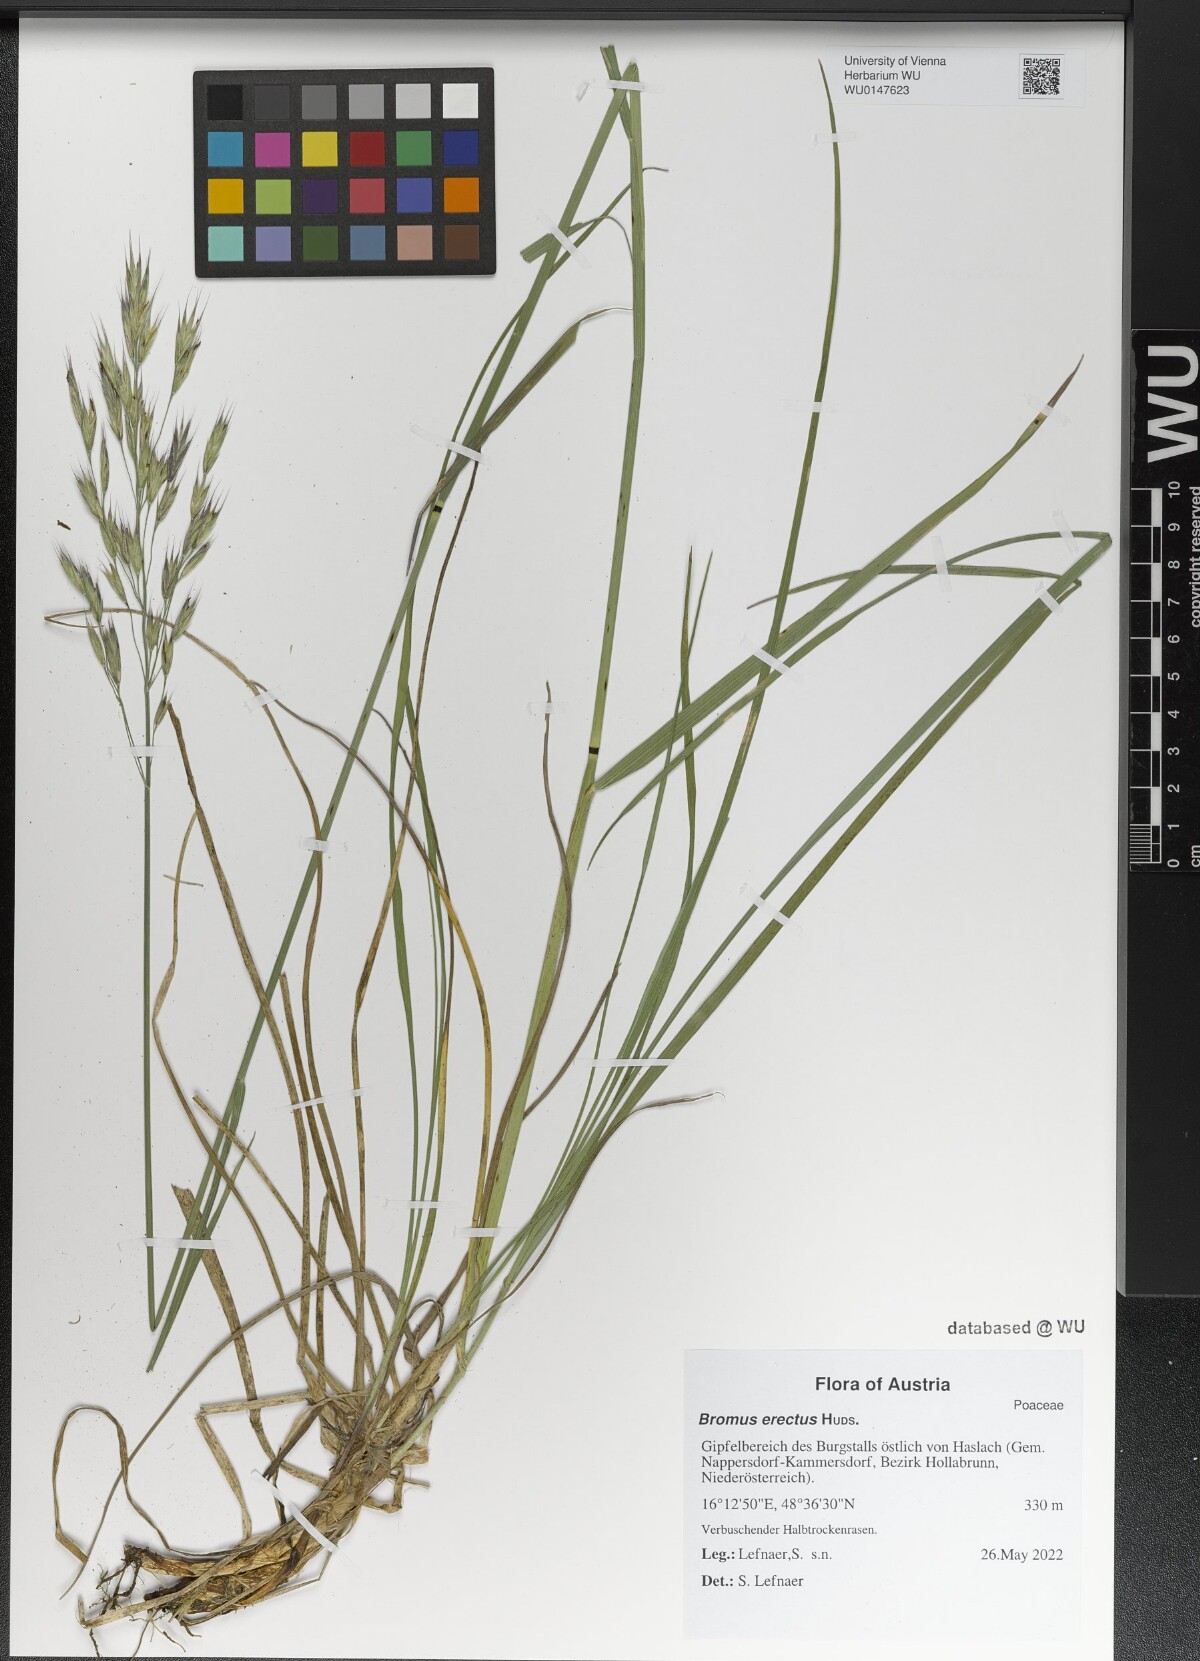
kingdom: Plantae
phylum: Tracheophyta
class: Liliopsida
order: Poales
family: Poaceae
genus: Bromus
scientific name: Bromus erectus
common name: Erect brome
